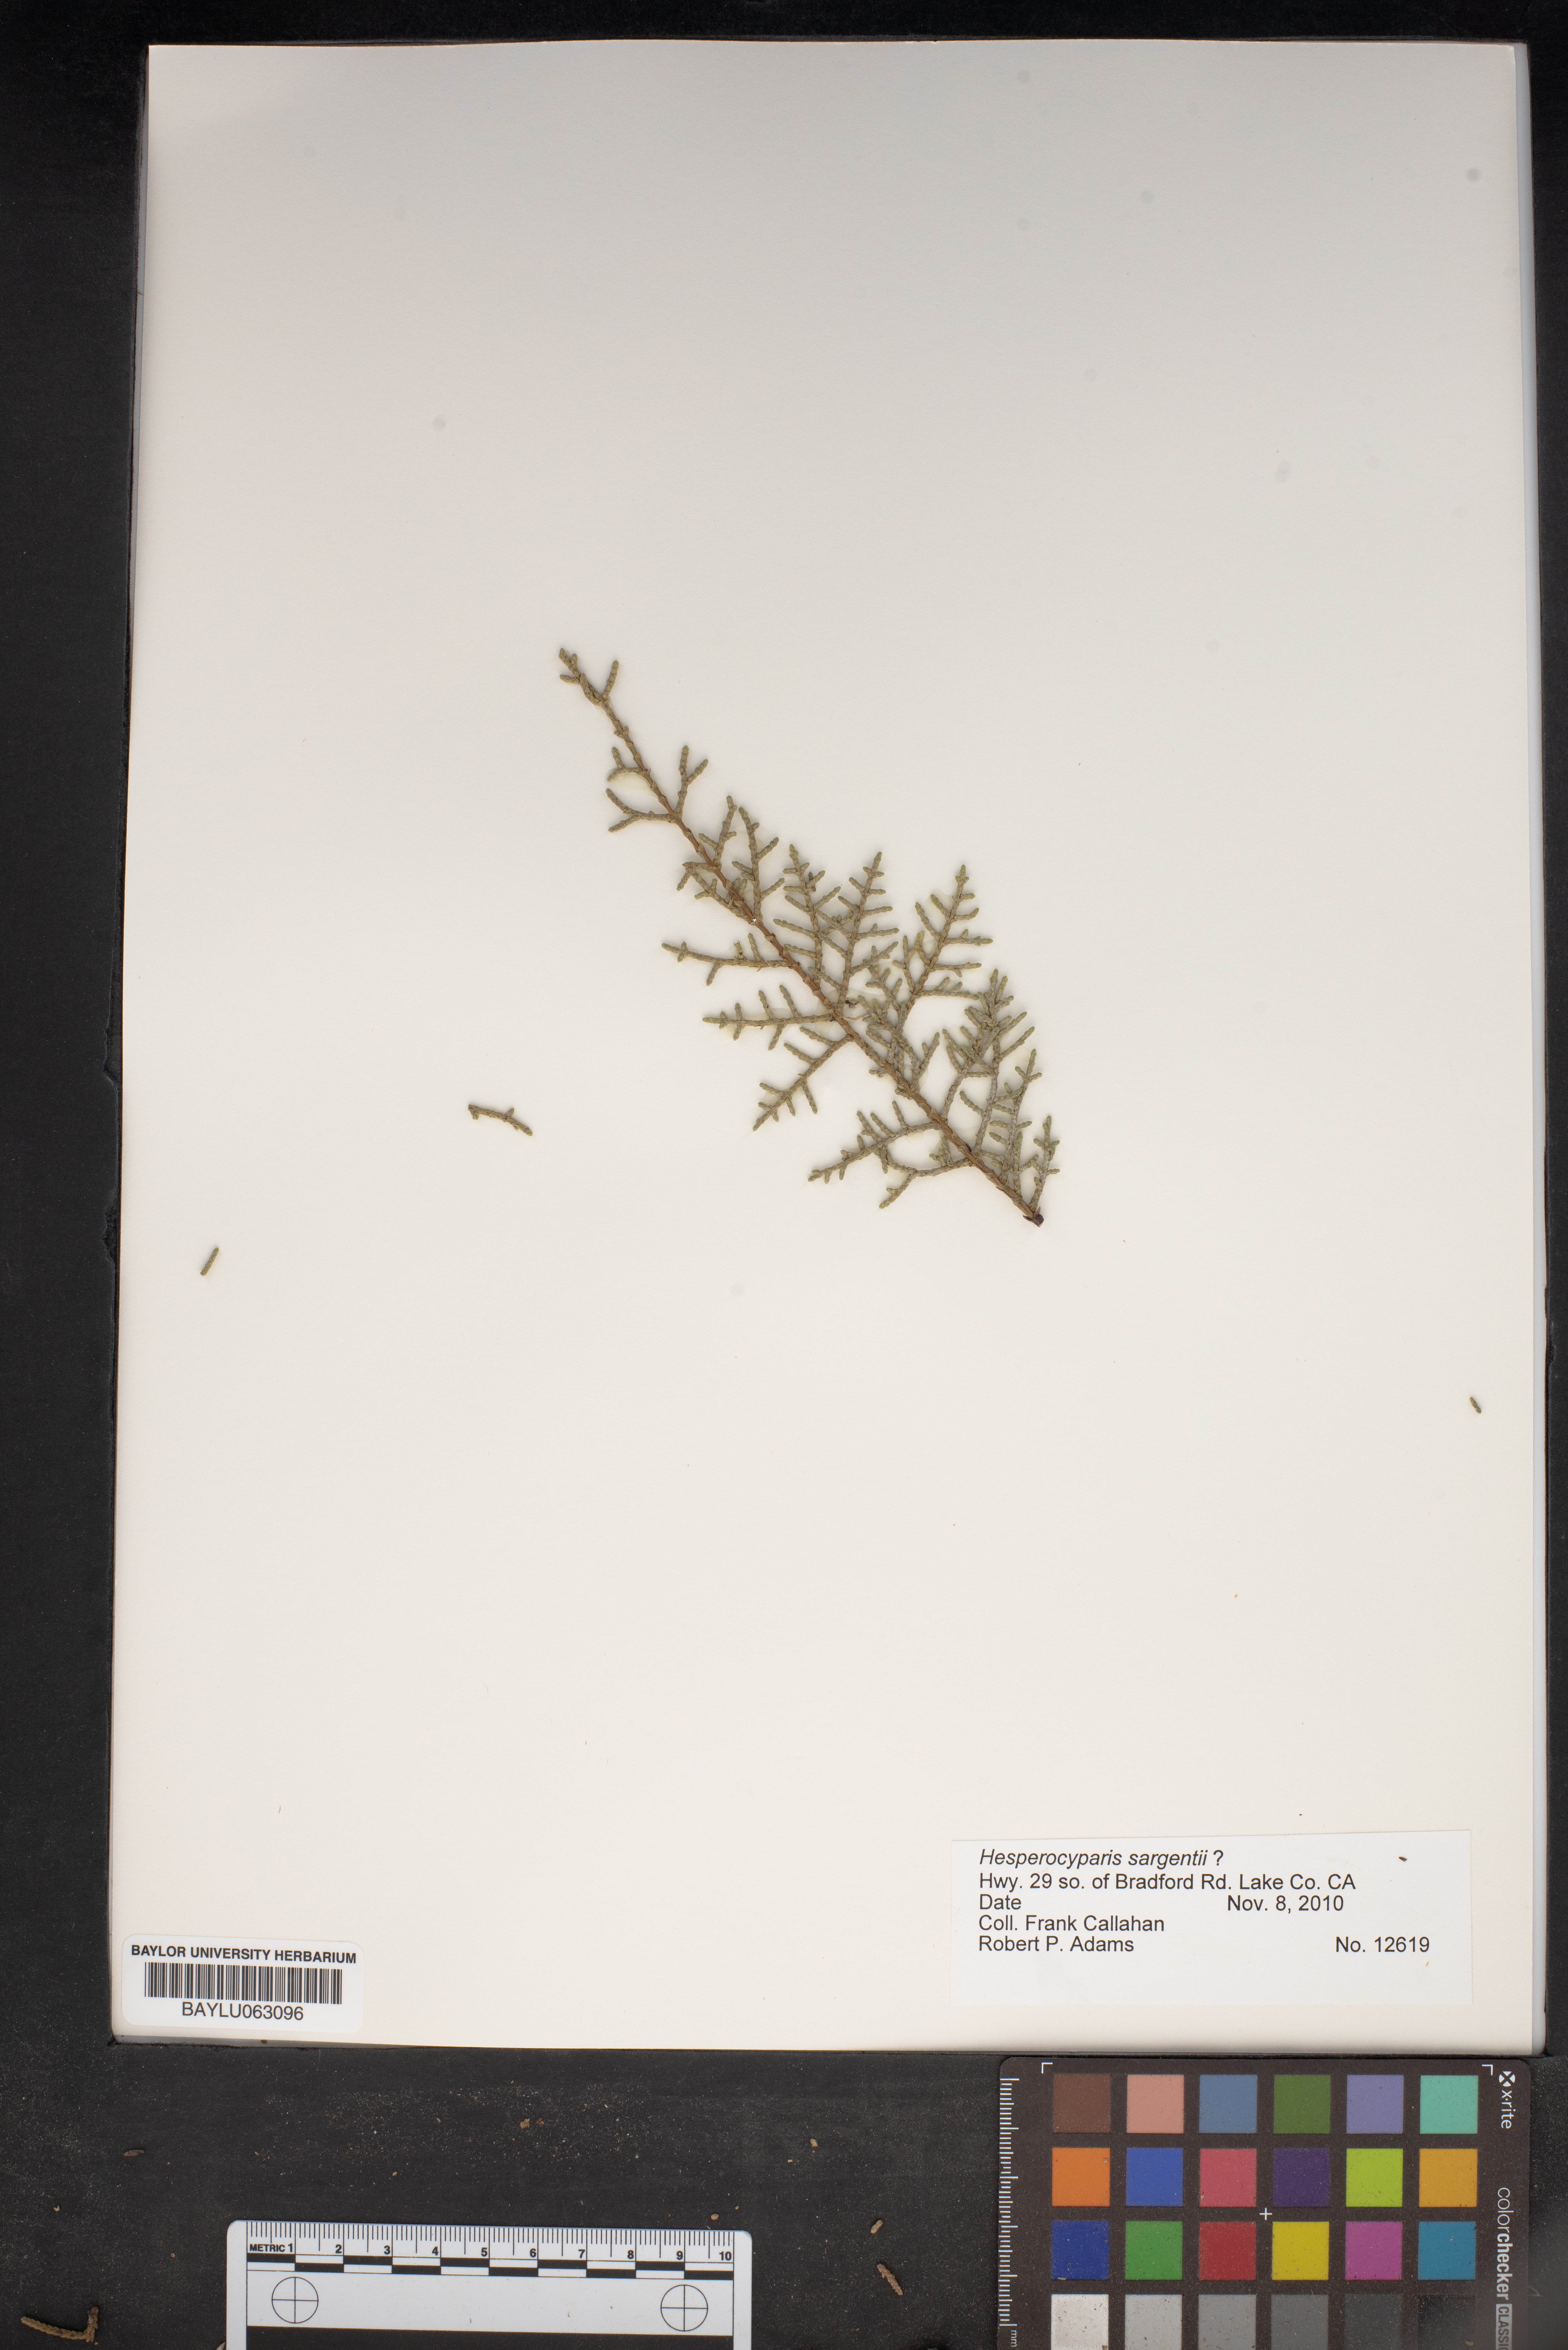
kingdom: Plantae
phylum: Tracheophyta
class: Pinopsida
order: Pinales
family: Cupressaceae
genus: Cupressus
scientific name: Cupressus sargentii
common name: Sargent cypress
